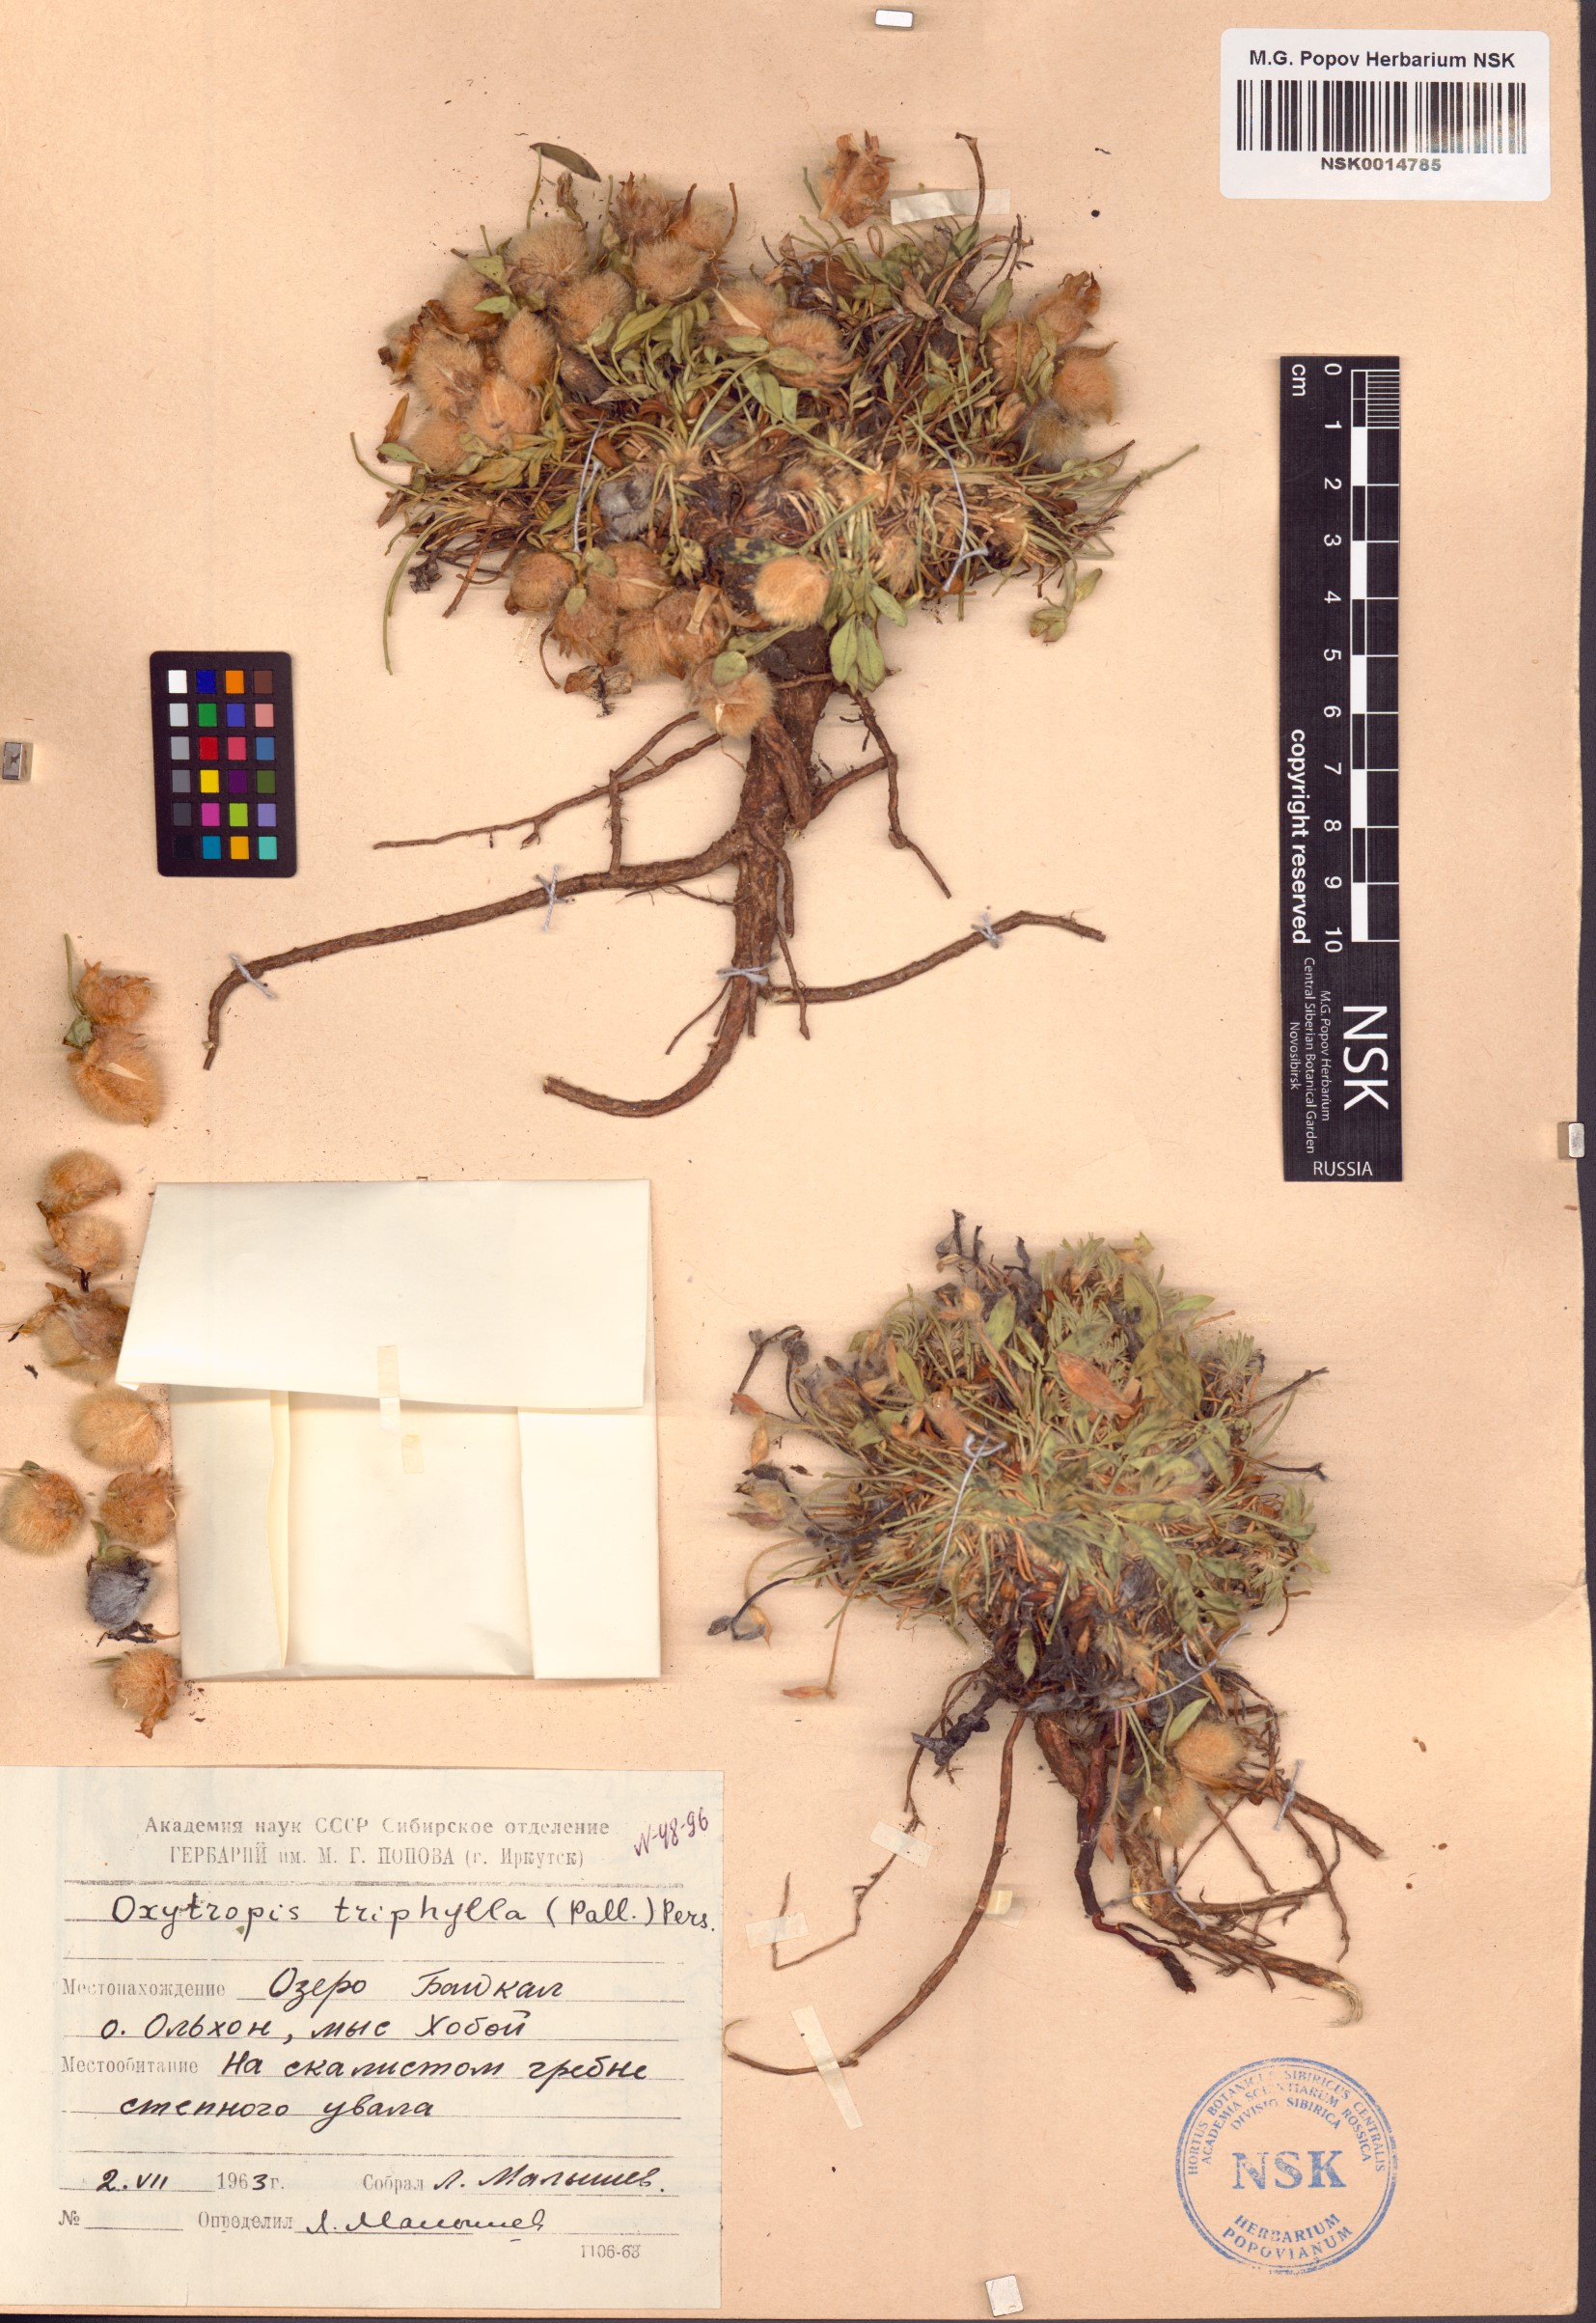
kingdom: Plantae
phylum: Tracheophyta
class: Magnoliopsida
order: Fabales
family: Fabaceae
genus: Oxytropis
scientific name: Oxytropis triphylla
